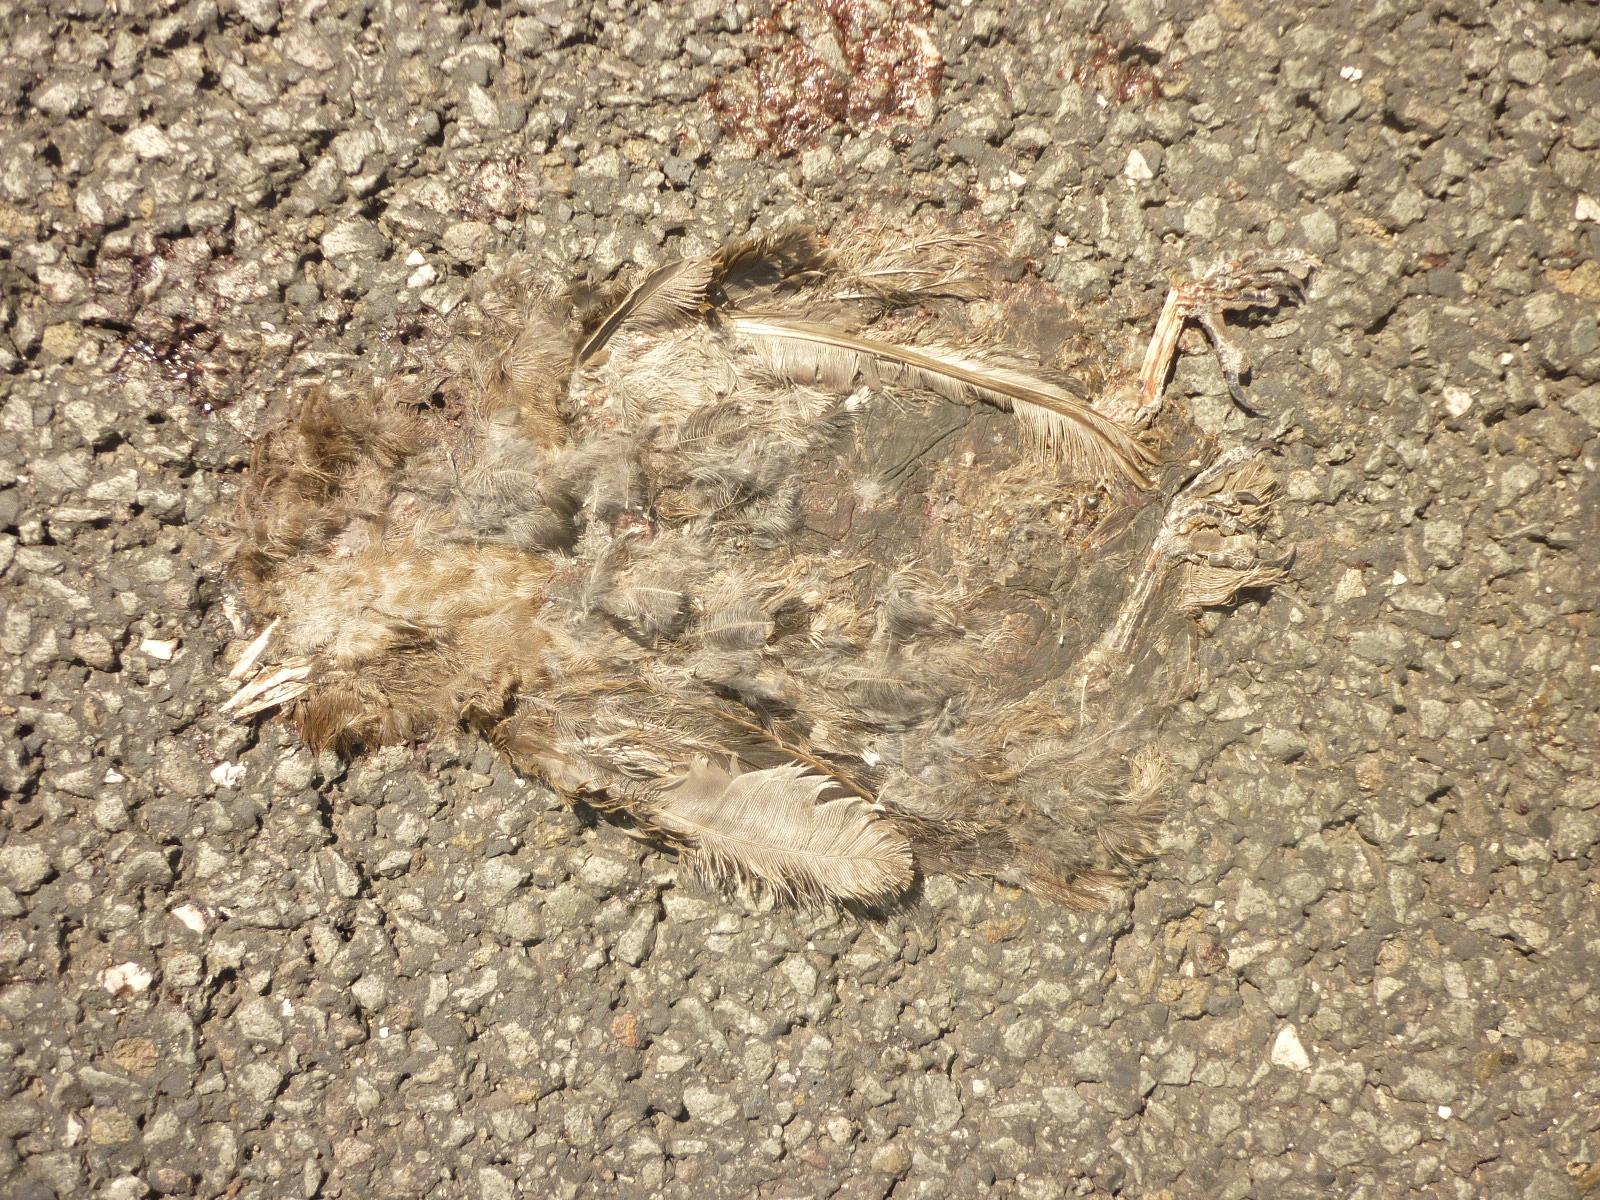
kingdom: Animalia
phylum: Chordata
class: Aves
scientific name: Aves
